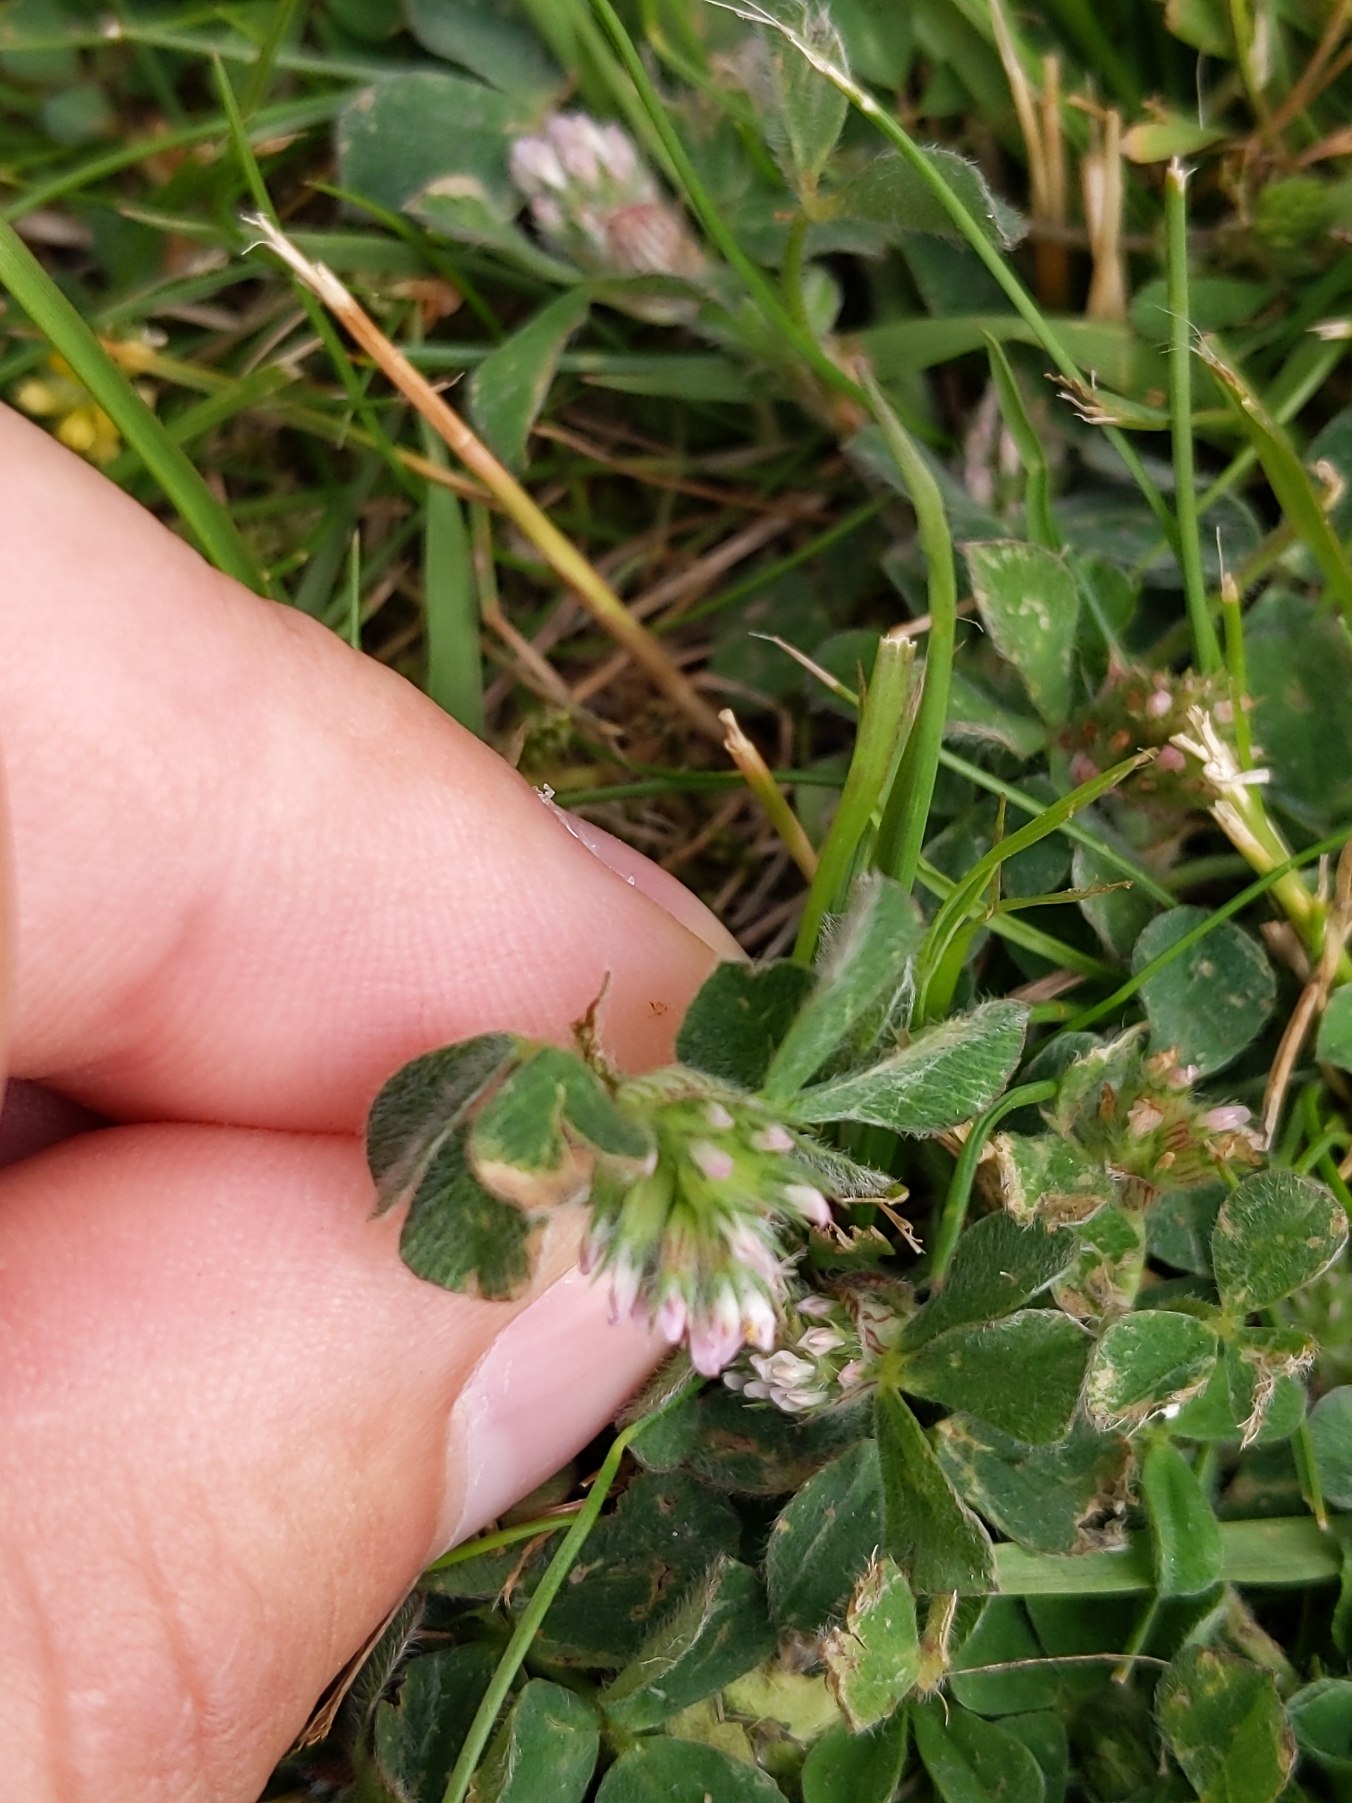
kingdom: Plantae
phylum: Tracheophyta
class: Magnoliopsida
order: Fabales
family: Fabaceae
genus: Trifolium
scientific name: Trifolium striatum
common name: Stribet kløver
